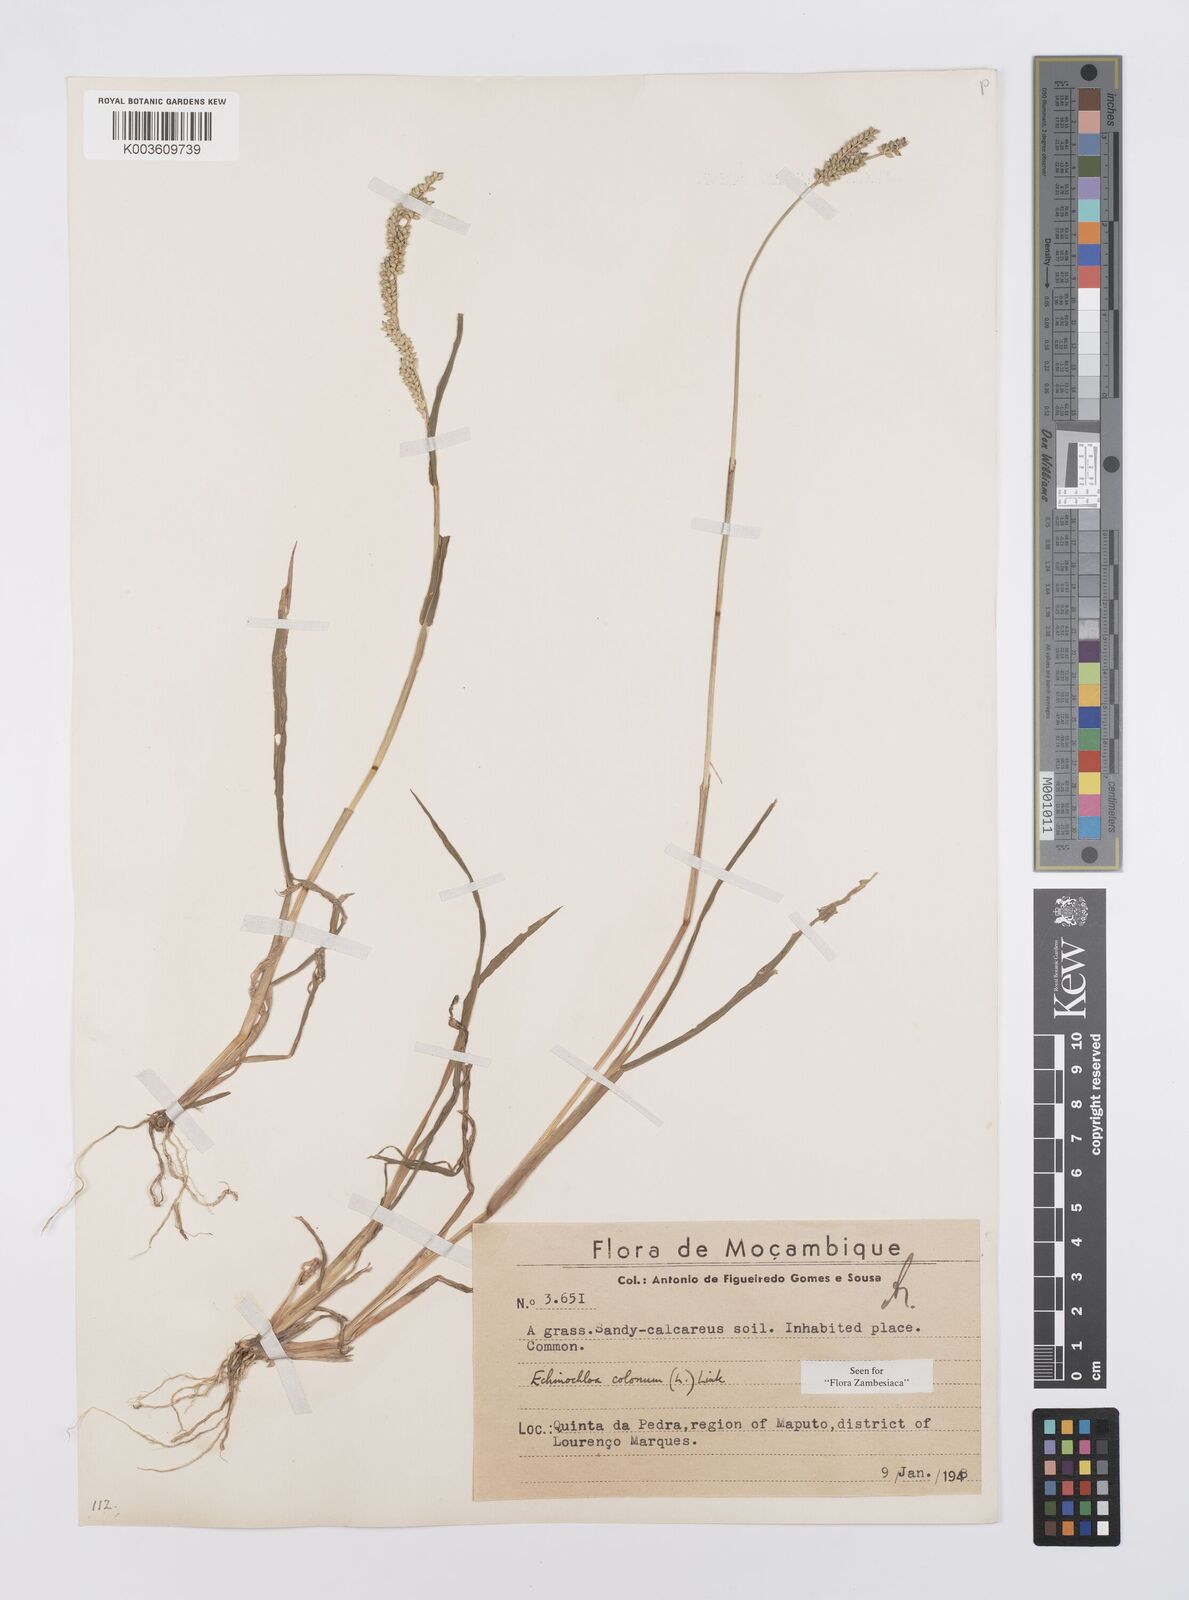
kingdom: Plantae
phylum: Tracheophyta
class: Liliopsida
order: Poales
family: Poaceae
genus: Echinochloa
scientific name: Echinochloa colonum
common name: Jungle rice
